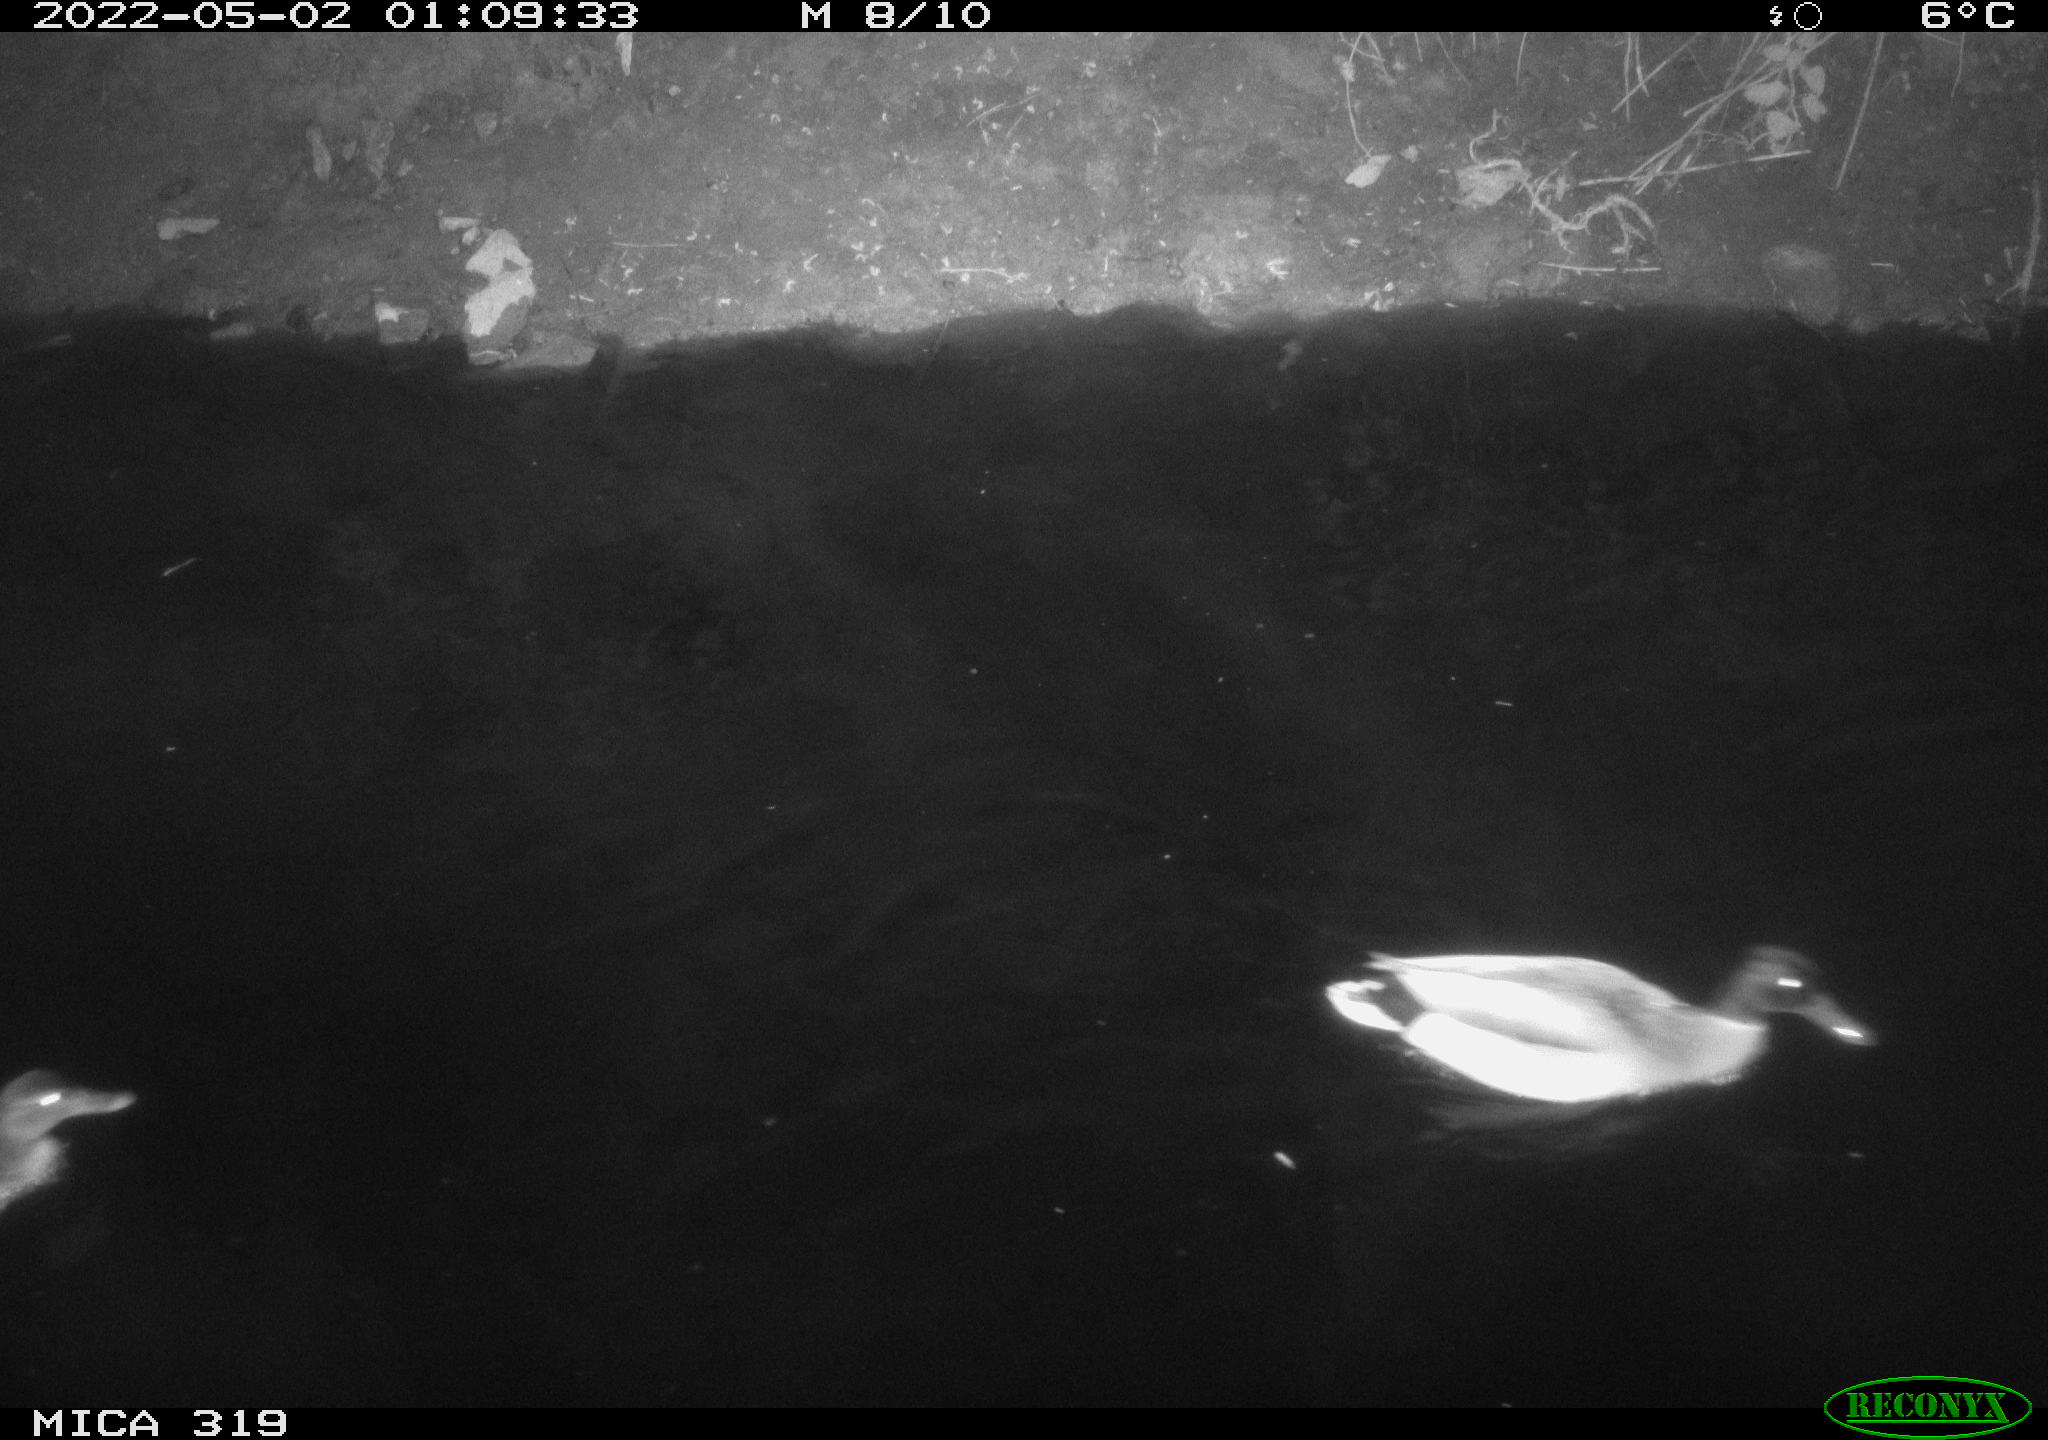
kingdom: Animalia
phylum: Chordata
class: Aves
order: Anseriformes
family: Anatidae
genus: Anas
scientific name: Anas platyrhynchos
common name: Mallard
